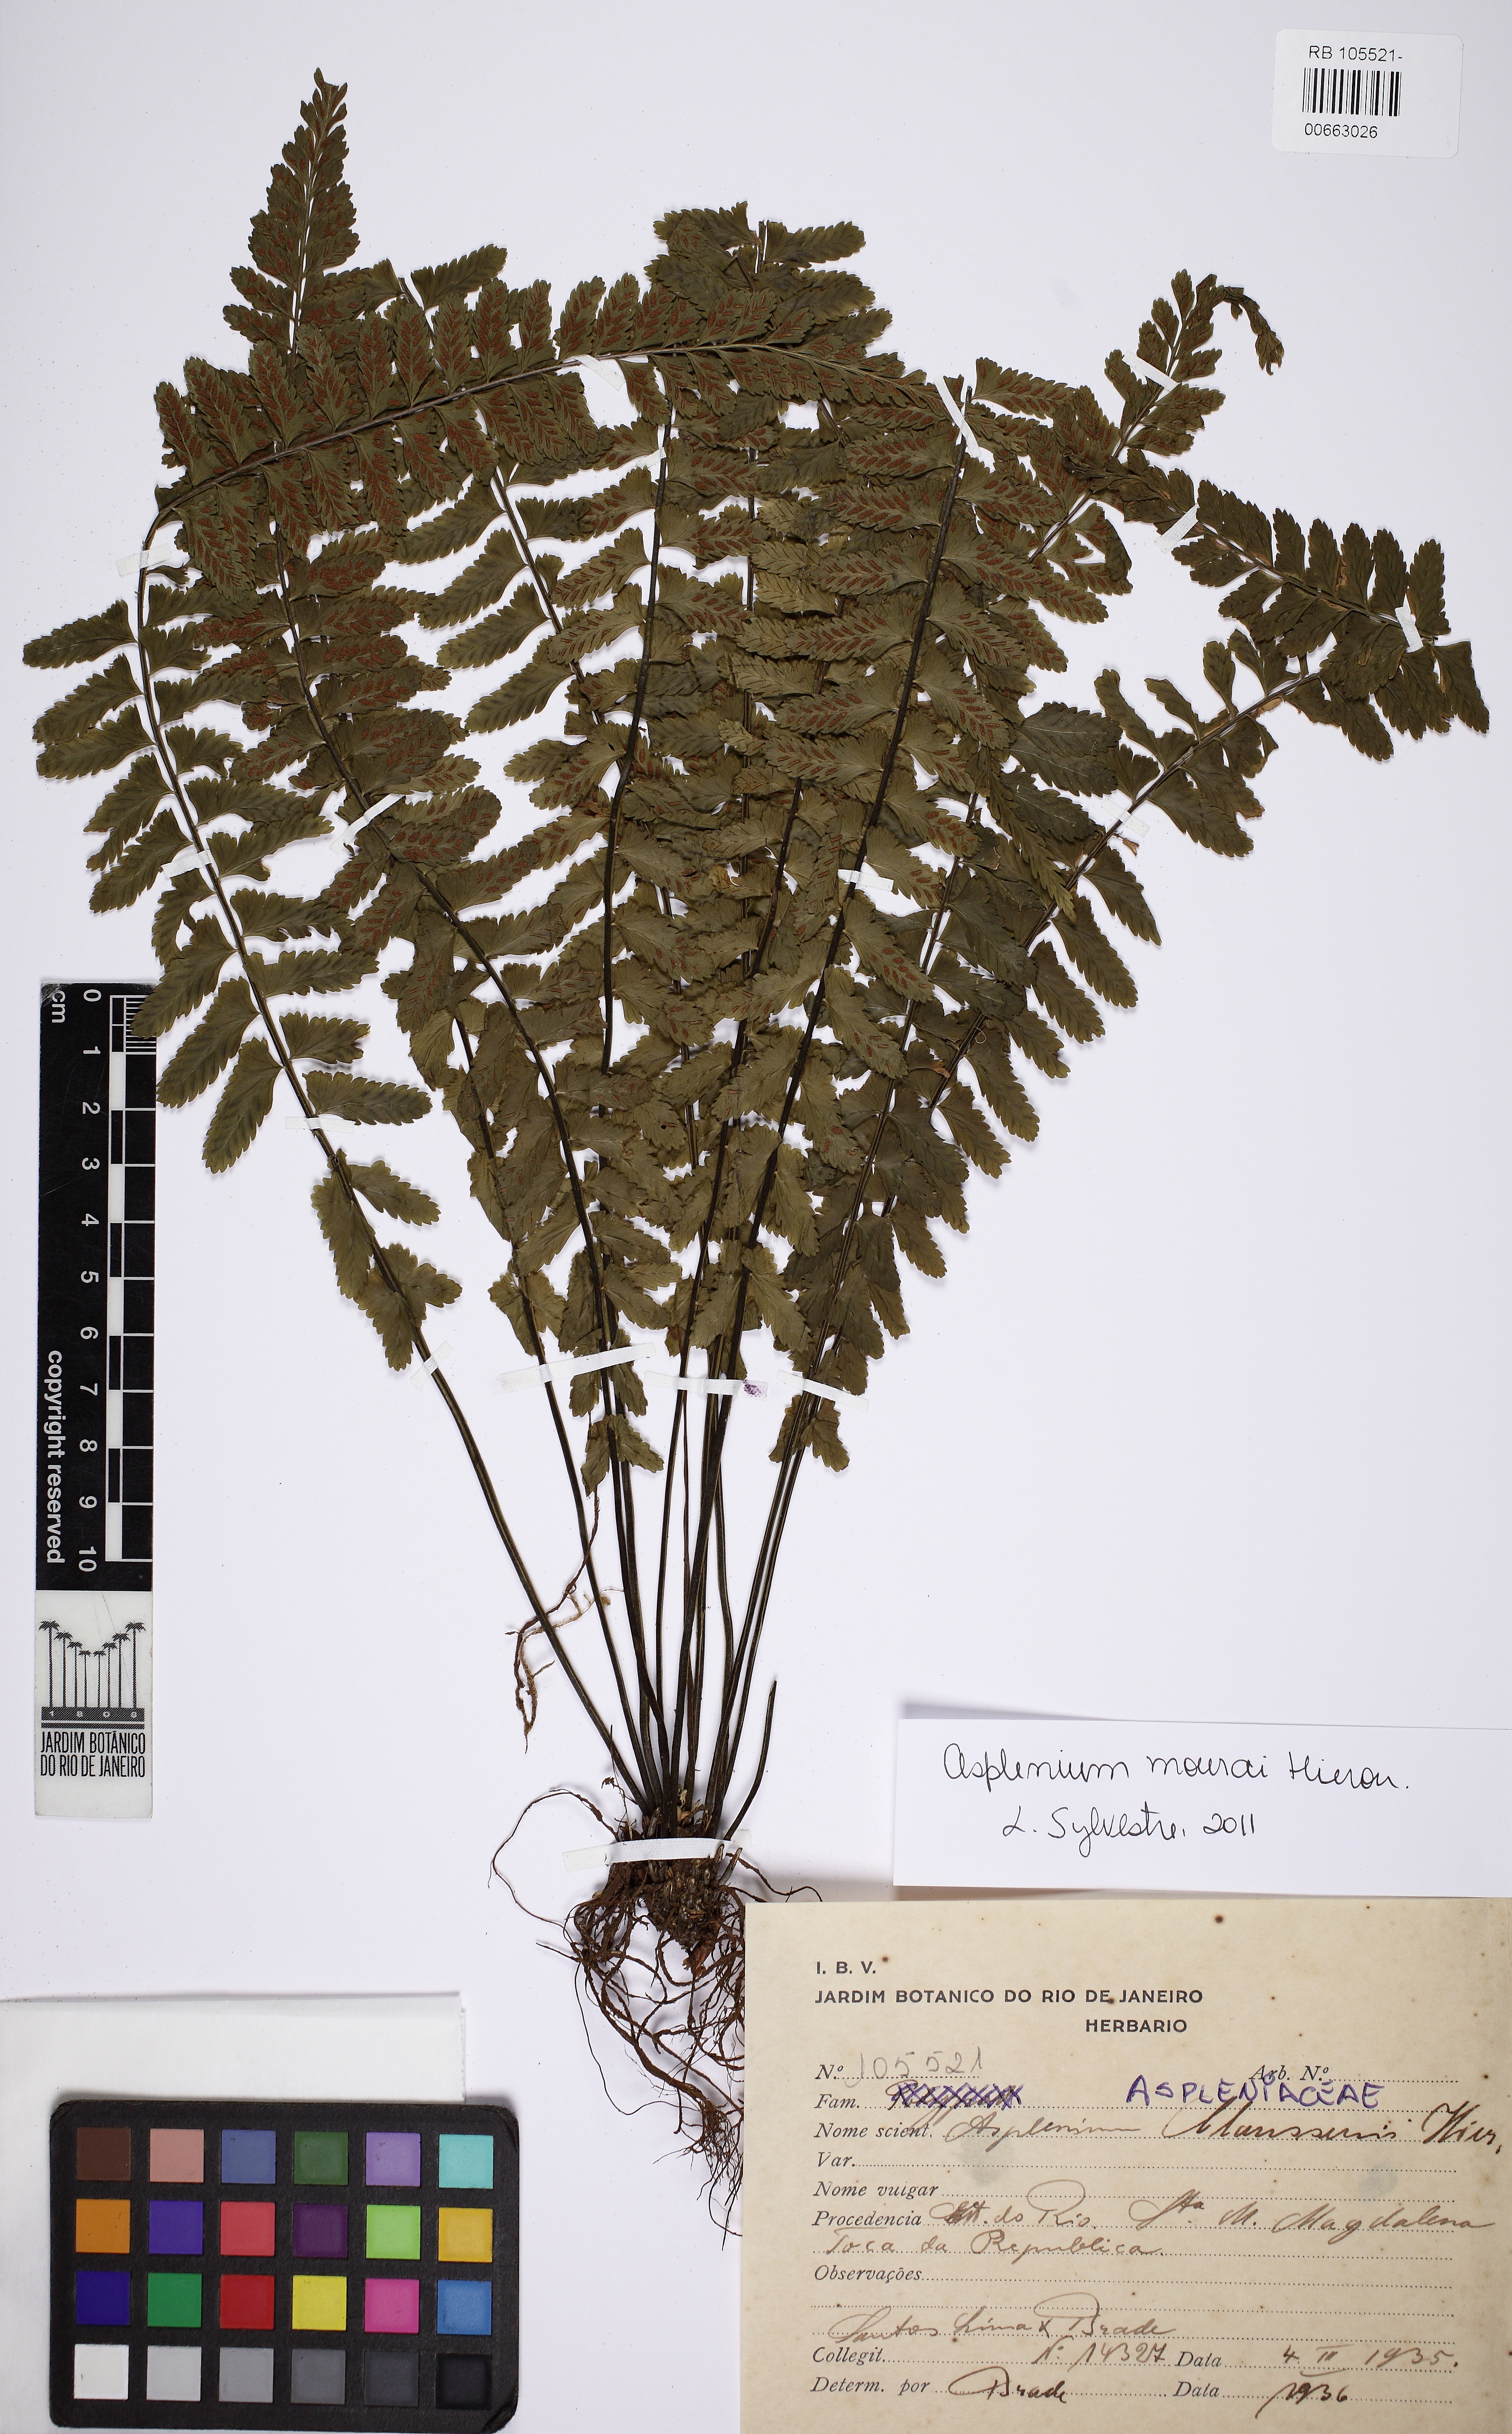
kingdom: Plantae
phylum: Tracheophyta
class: Polypodiopsida
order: Polypodiales
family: Aspleniaceae
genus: Asplenium
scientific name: Asplenium mourai
